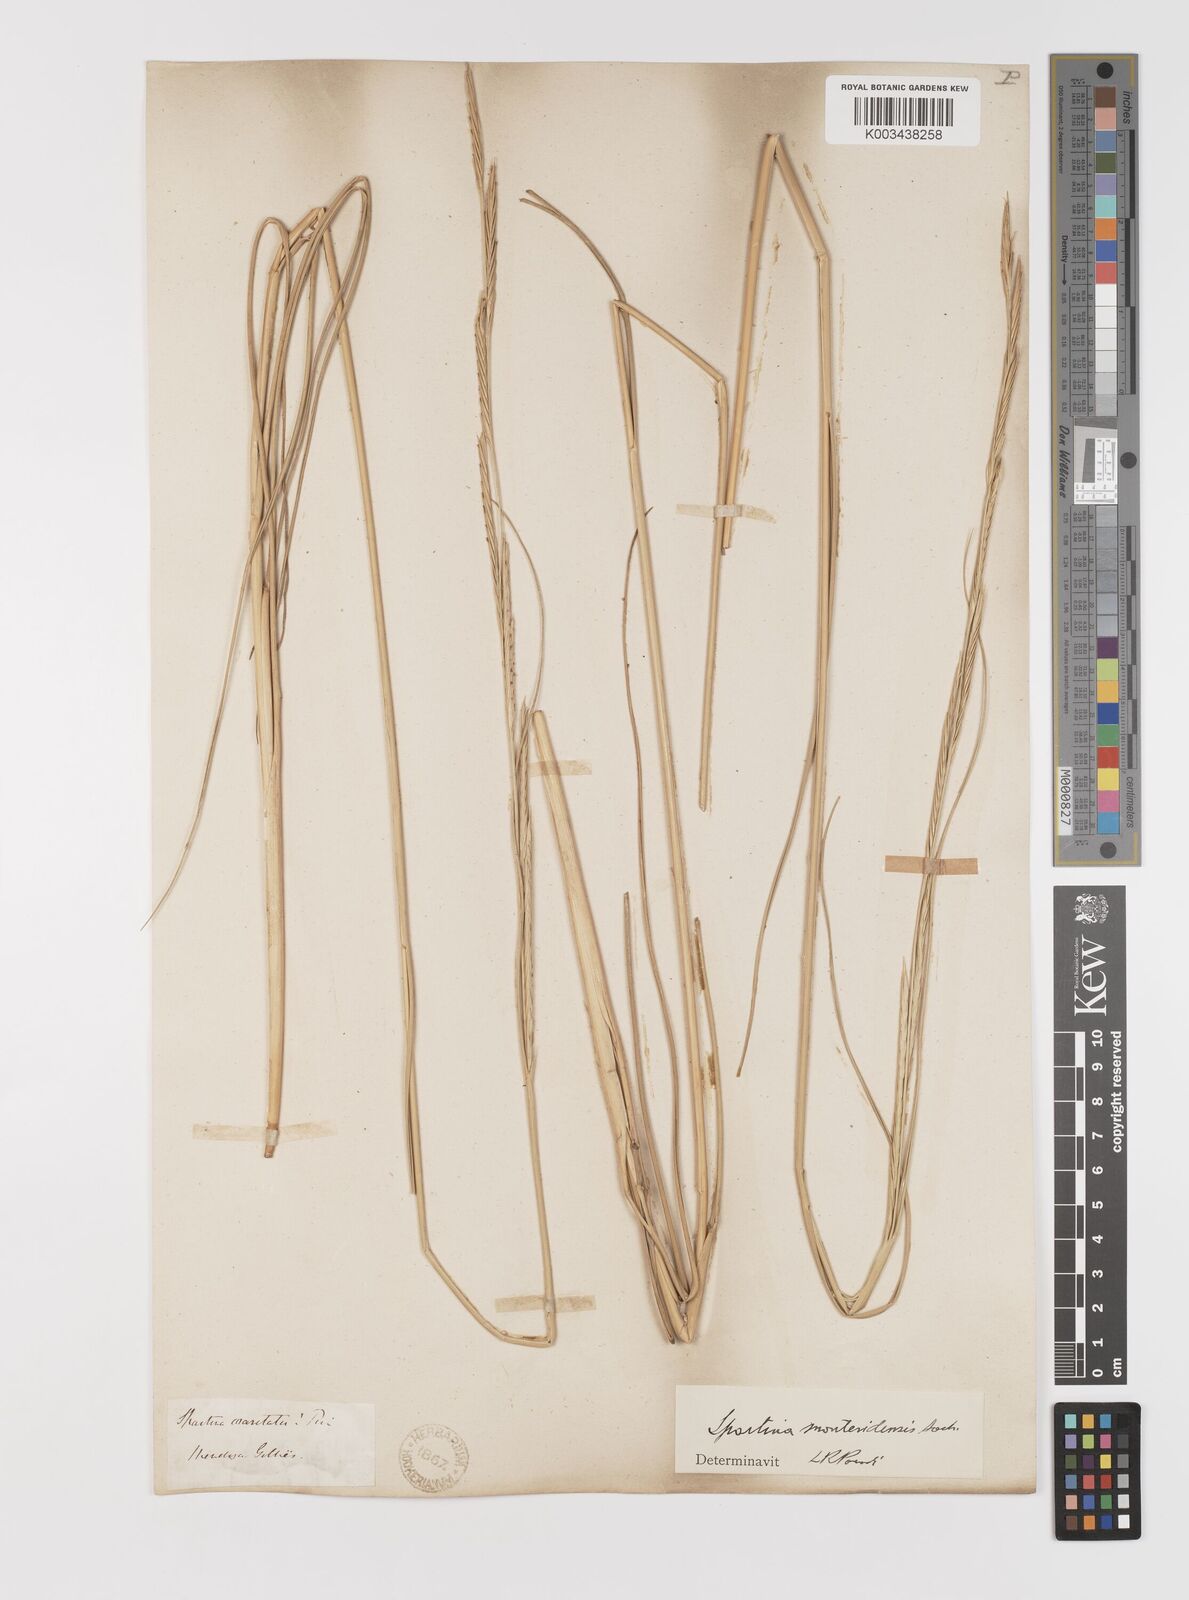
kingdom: Plantae
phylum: Tracheophyta
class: Liliopsida
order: Poales
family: Poaceae
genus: Sporobolus
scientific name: Sporobolus montevidensis
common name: Montevideo dropseed
